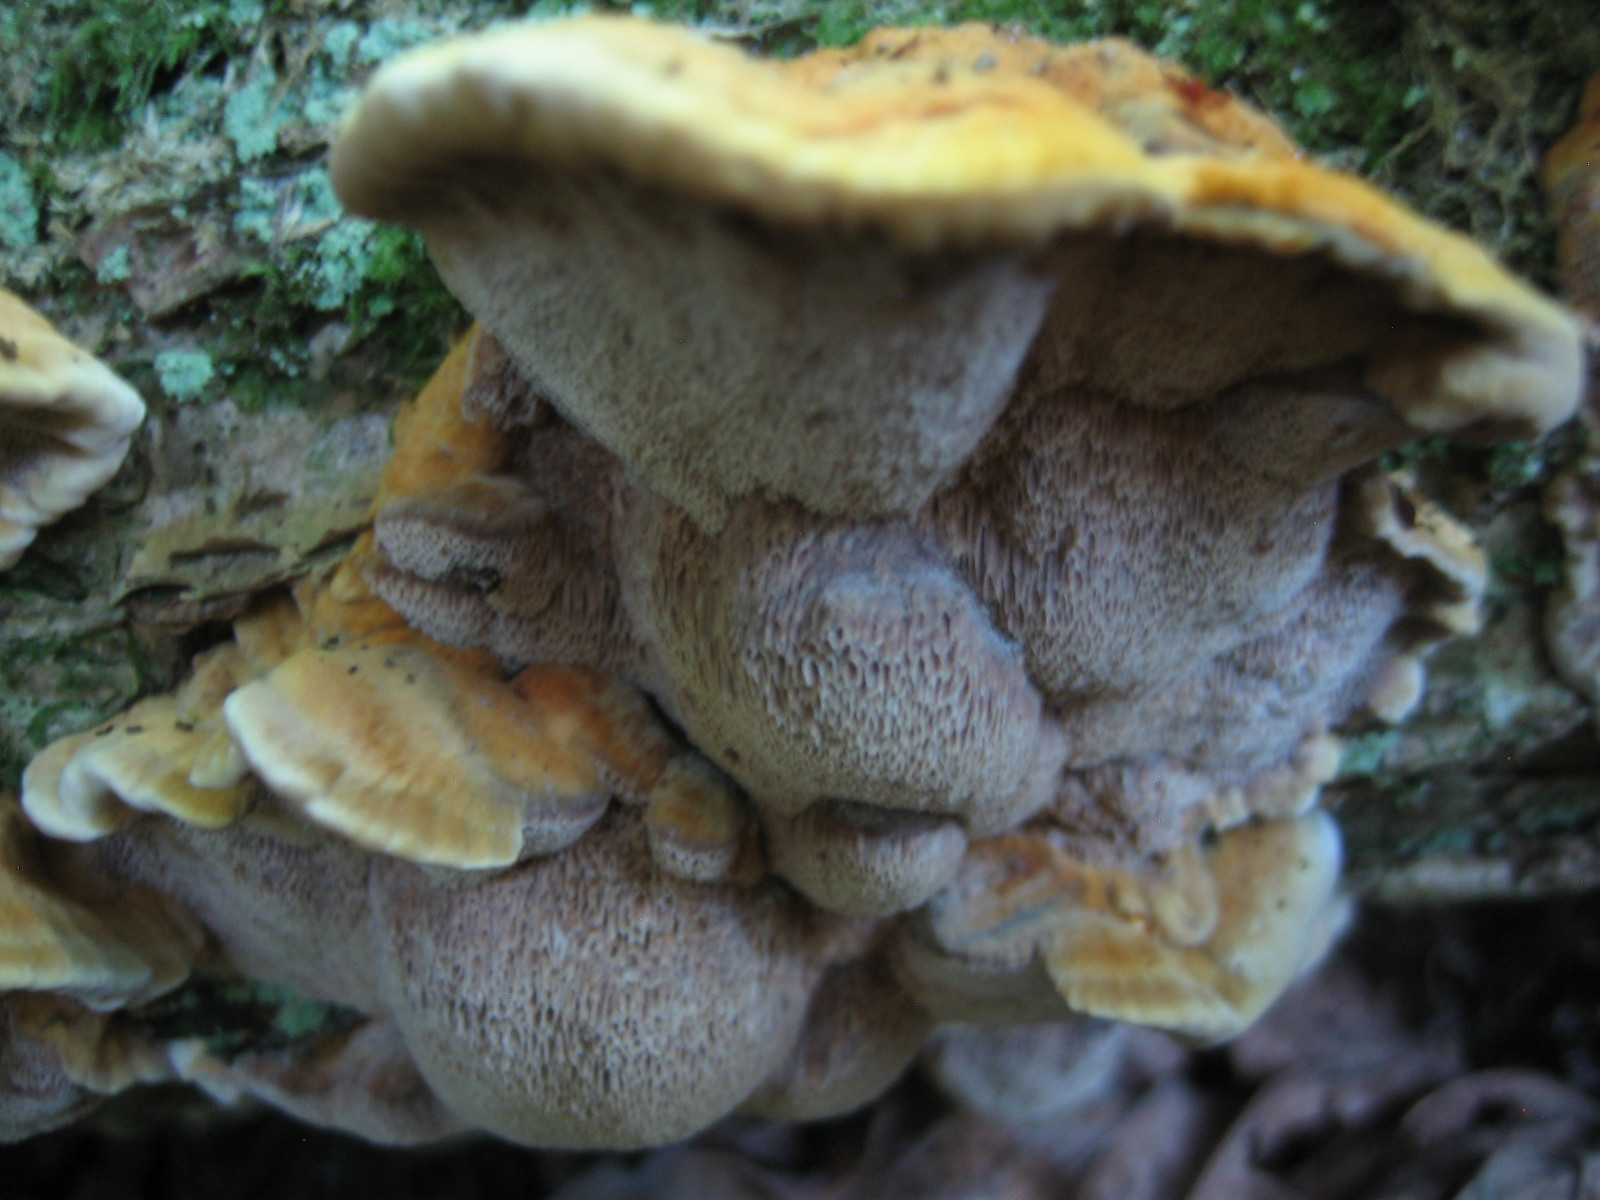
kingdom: Fungi
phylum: Basidiomycota
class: Agaricomycetes
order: Hymenochaetales
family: Hymenochaetaceae
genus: Xanthoporia
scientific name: Xanthoporia radiata
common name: elle-spejlporesvamp
